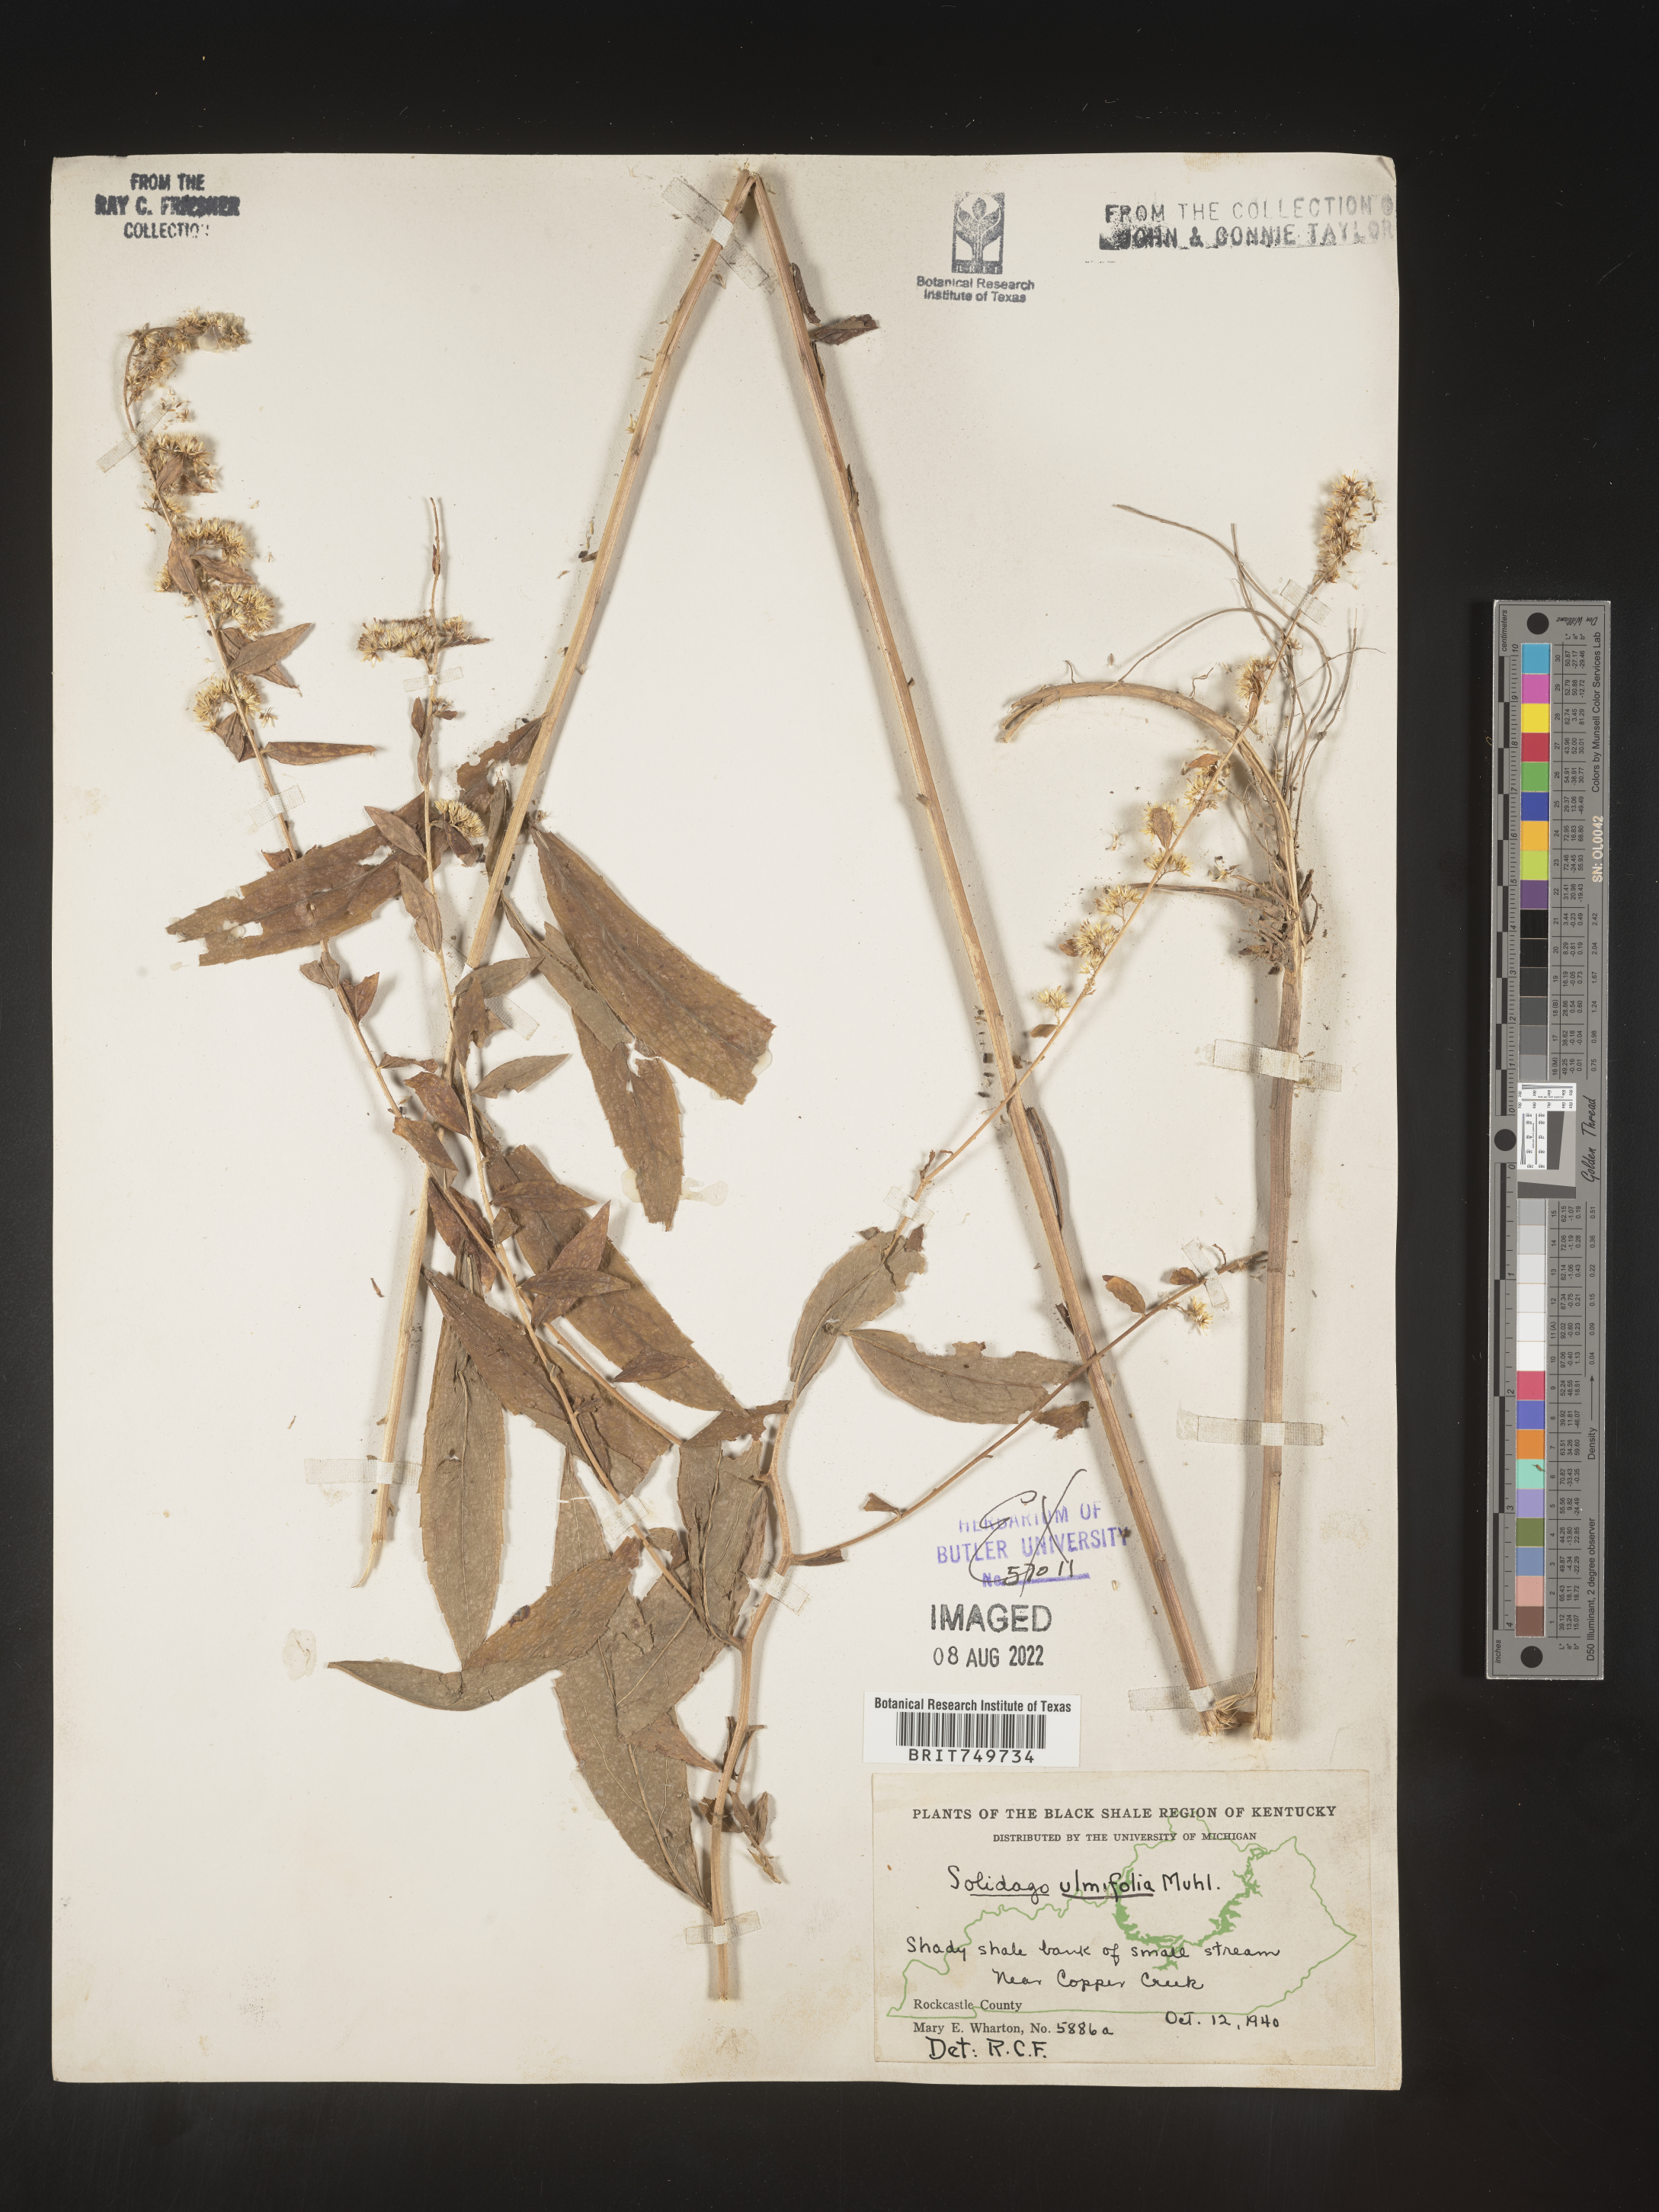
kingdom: Plantae
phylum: Tracheophyta
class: Magnoliopsida
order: Asterales
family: Asteraceae
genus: Solidago
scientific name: Solidago ulmifolia
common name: Elm-leaf goldenrod
